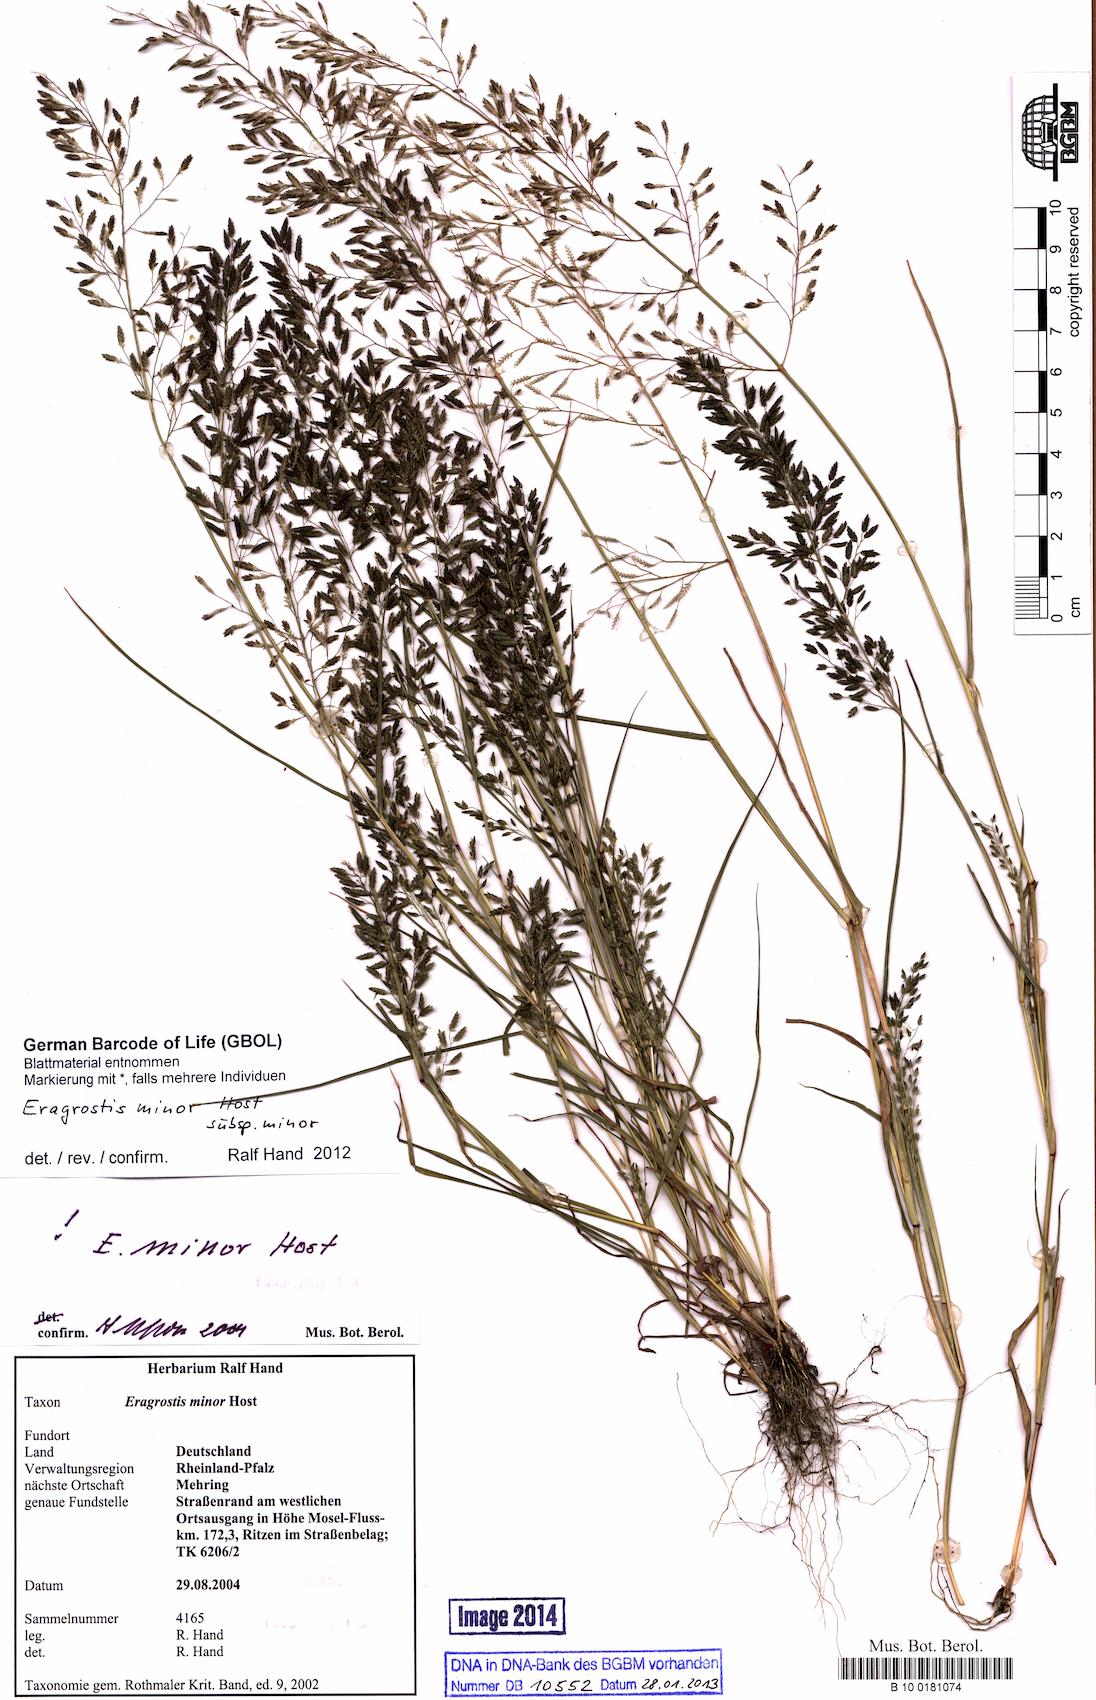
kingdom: Plantae
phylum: Tracheophyta
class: Liliopsida
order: Poales
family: Poaceae
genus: Eragrostis
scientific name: Eragrostis minor
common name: Small love-grass
